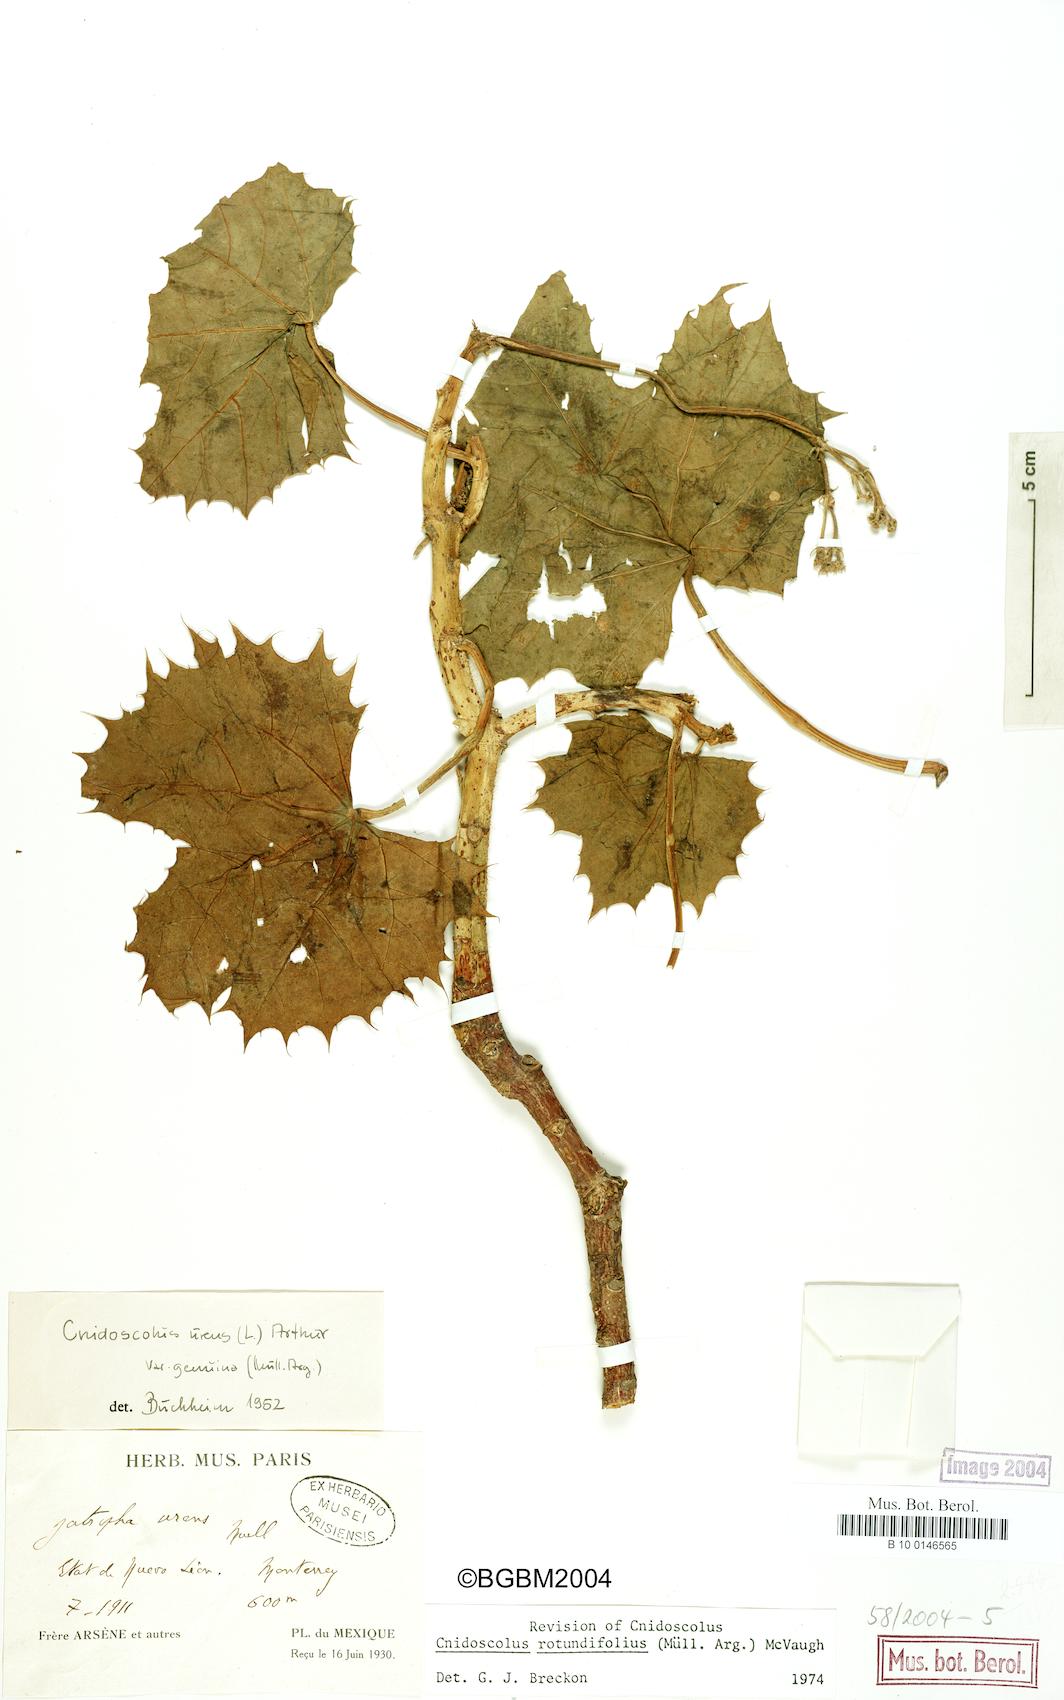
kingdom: Plantae
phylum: Tracheophyta
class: Magnoliopsida
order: Malpighiales
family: Euphorbiaceae
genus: Cnidoscolus
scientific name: Cnidoscolus rotundifolius
